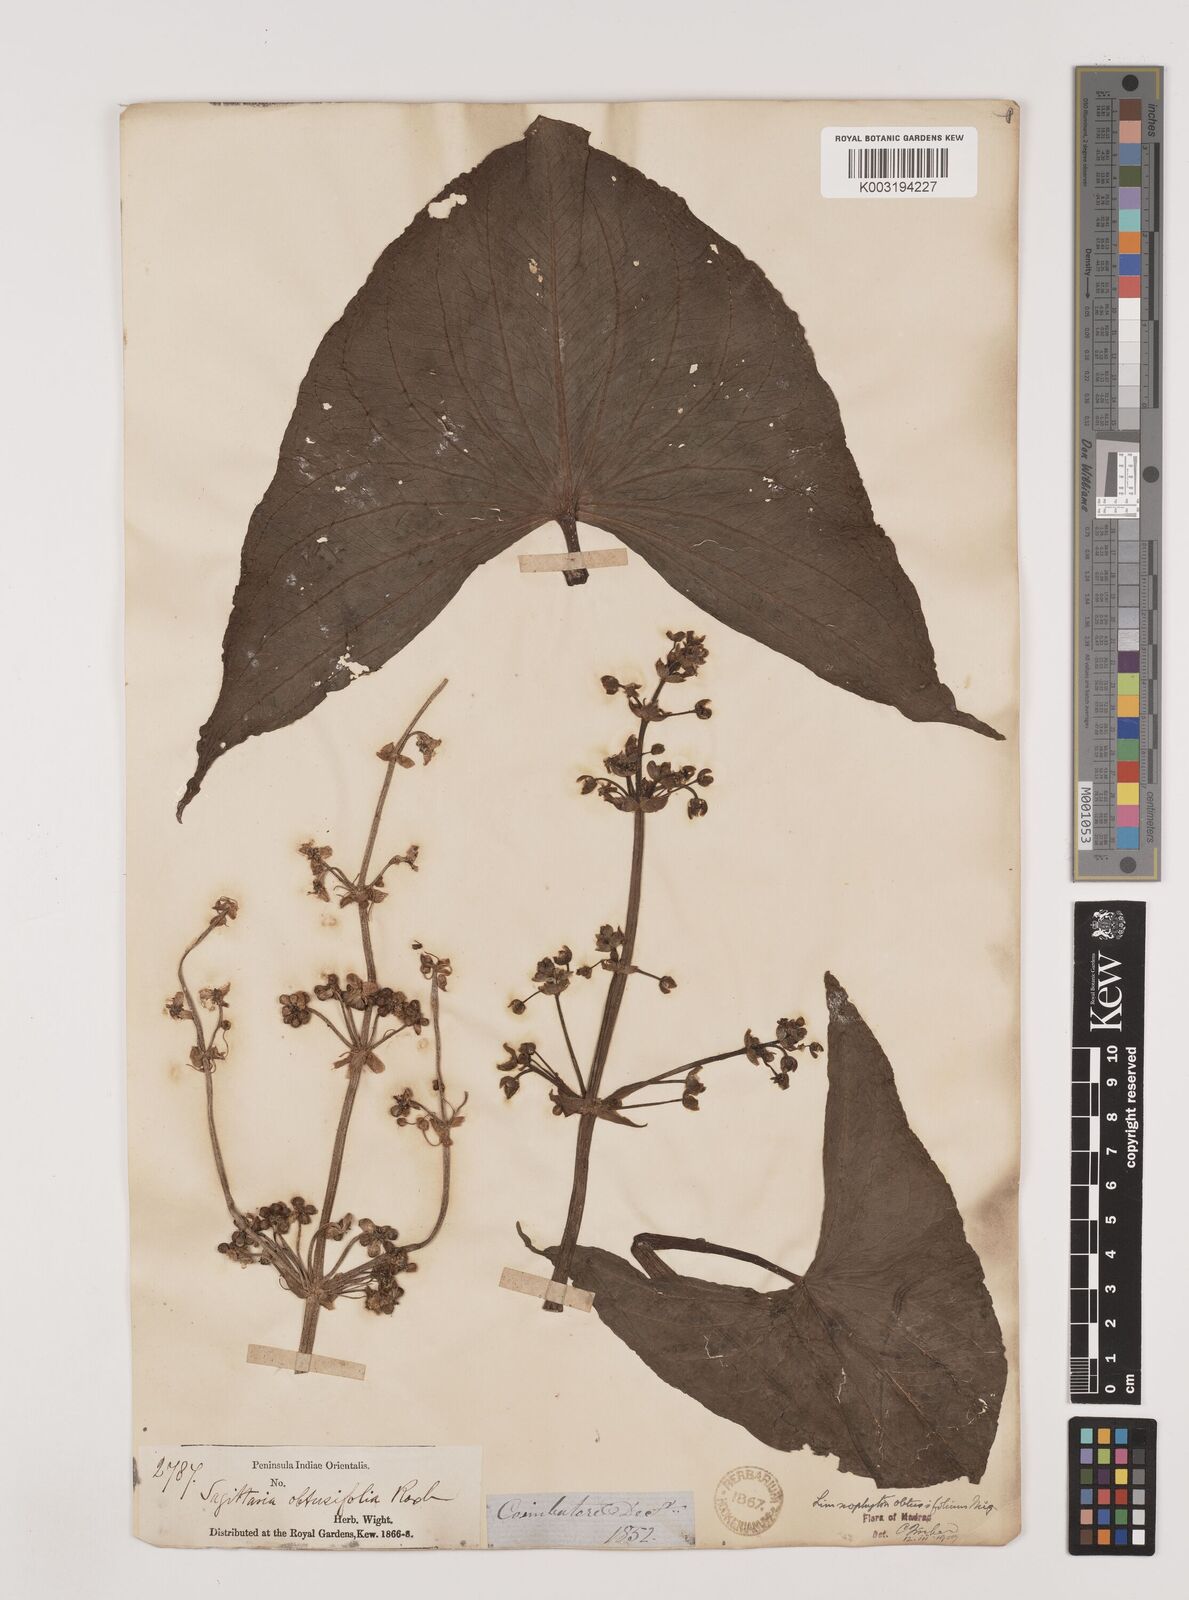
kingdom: Plantae
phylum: Tracheophyta
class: Liliopsida
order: Alismatales
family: Alismataceae
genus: Limnophyton
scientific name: Limnophyton obtusifolium
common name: Arrow head
